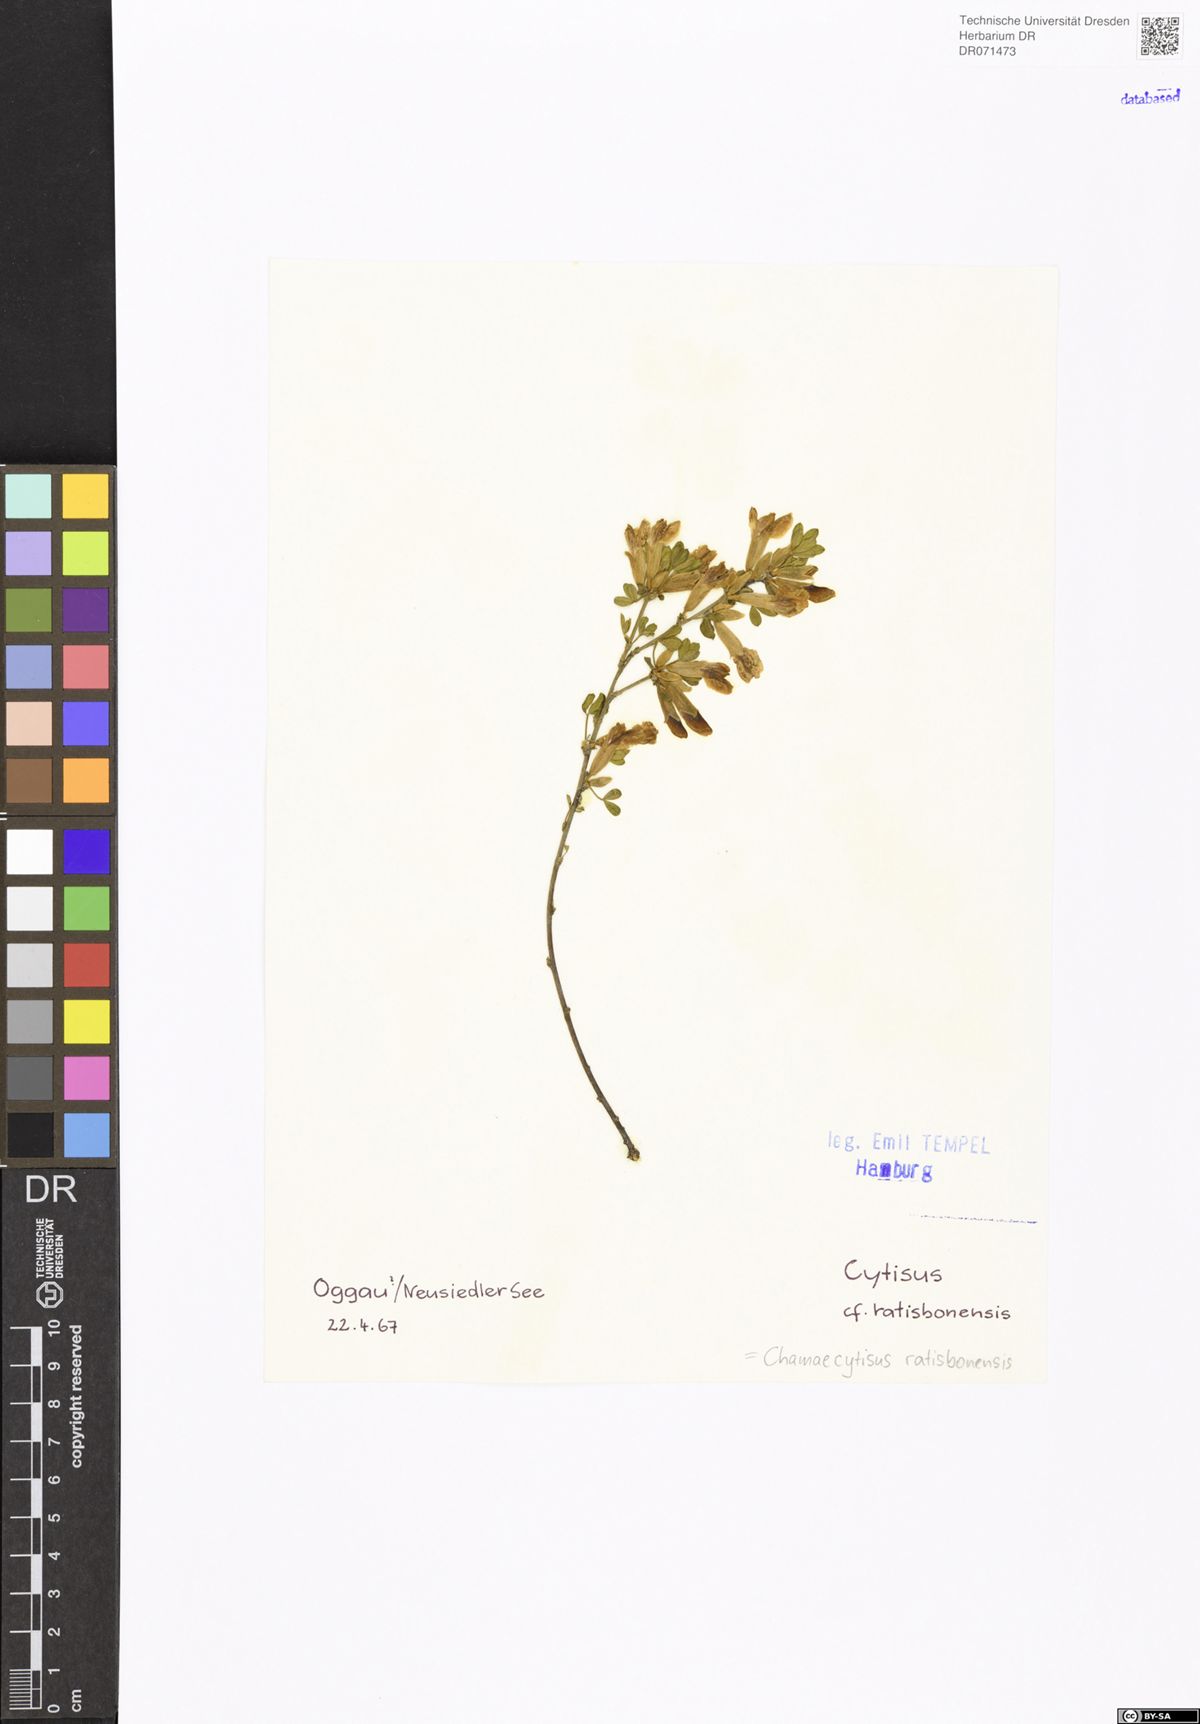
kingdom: Plantae
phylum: Tracheophyta
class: Magnoliopsida
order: Fabales
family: Fabaceae
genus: Chamaecytisus
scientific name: Chamaecytisus ratisbonensis
